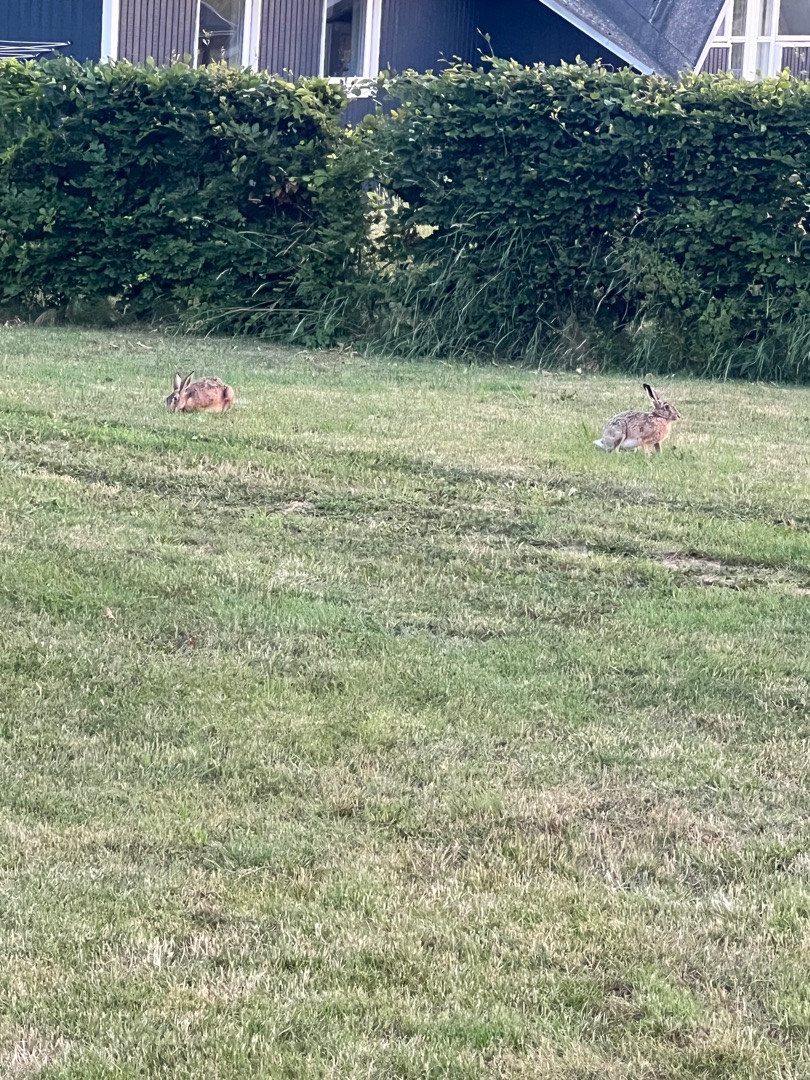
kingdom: Animalia
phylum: Chordata
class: Mammalia
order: Lagomorpha
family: Leporidae
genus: Lepus
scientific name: Lepus europaeus
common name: Hare
